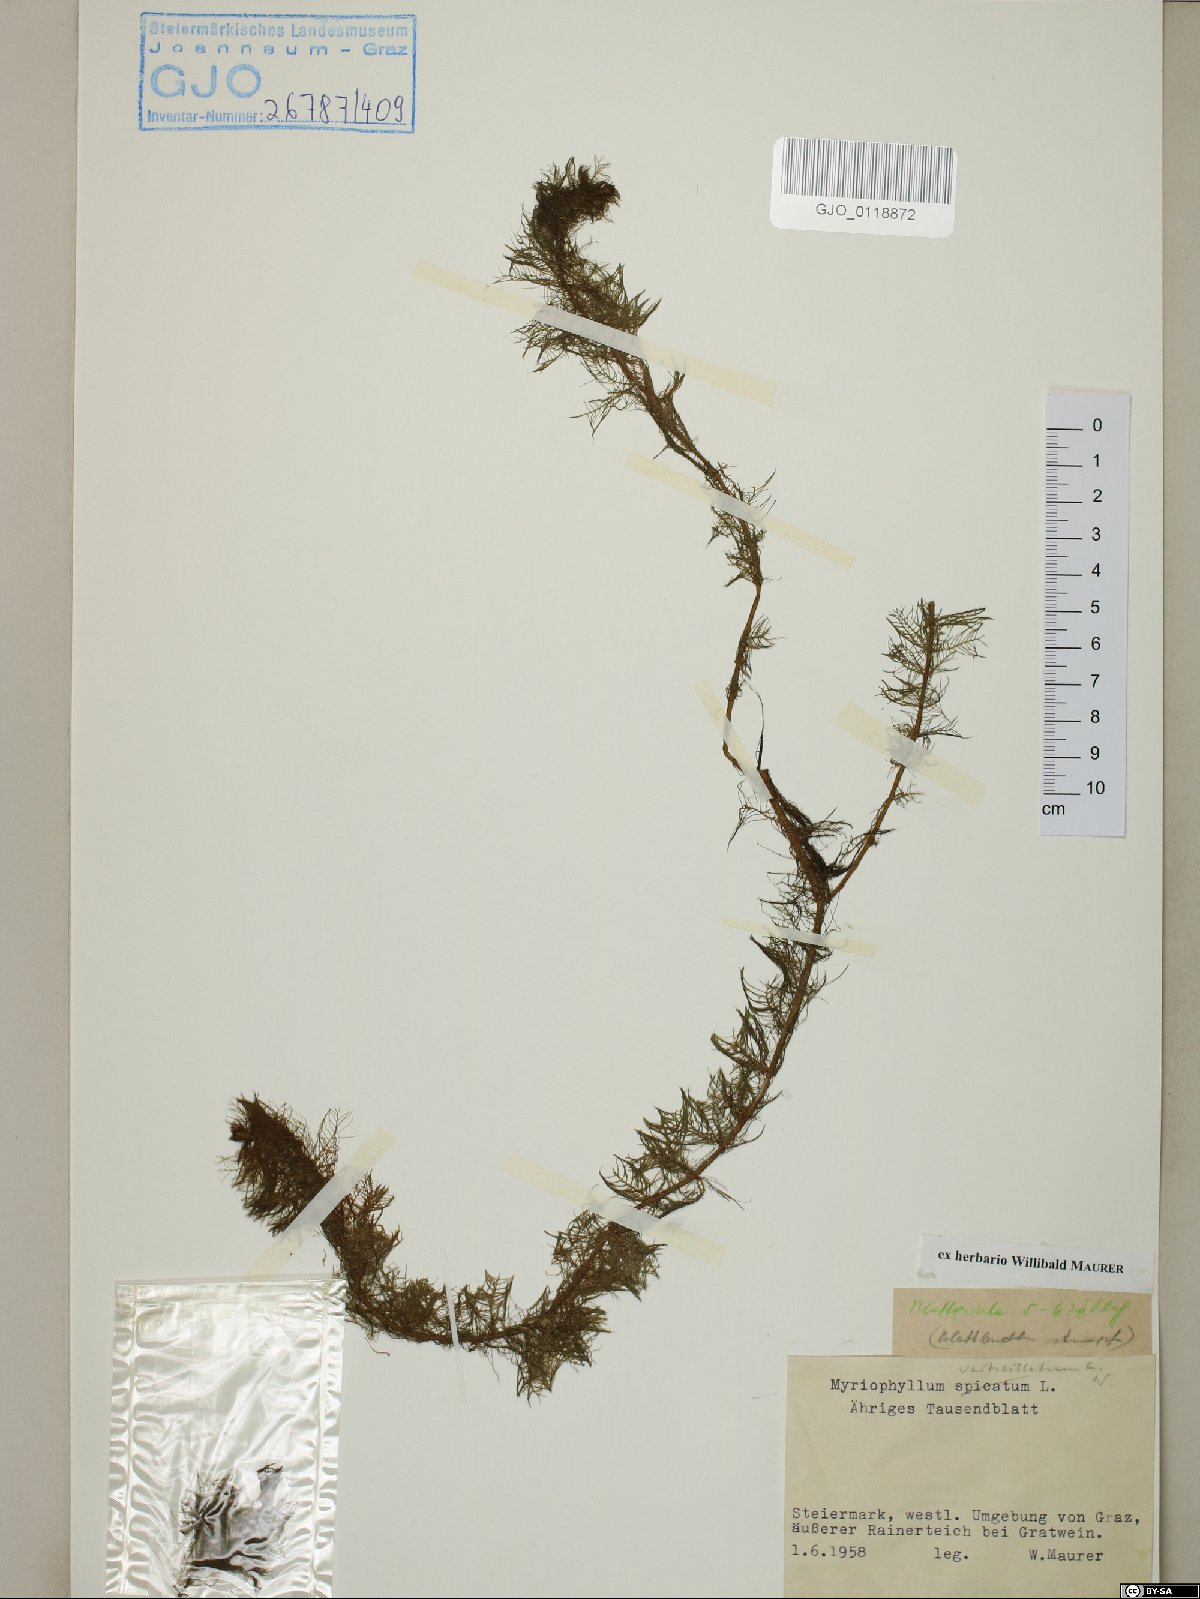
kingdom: Plantae
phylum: Tracheophyta
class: Magnoliopsida
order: Saxifragales
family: Haloragaceae
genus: Myriophyllum
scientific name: Myriophyllum verticillatum
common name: Whorled water-milfoil
